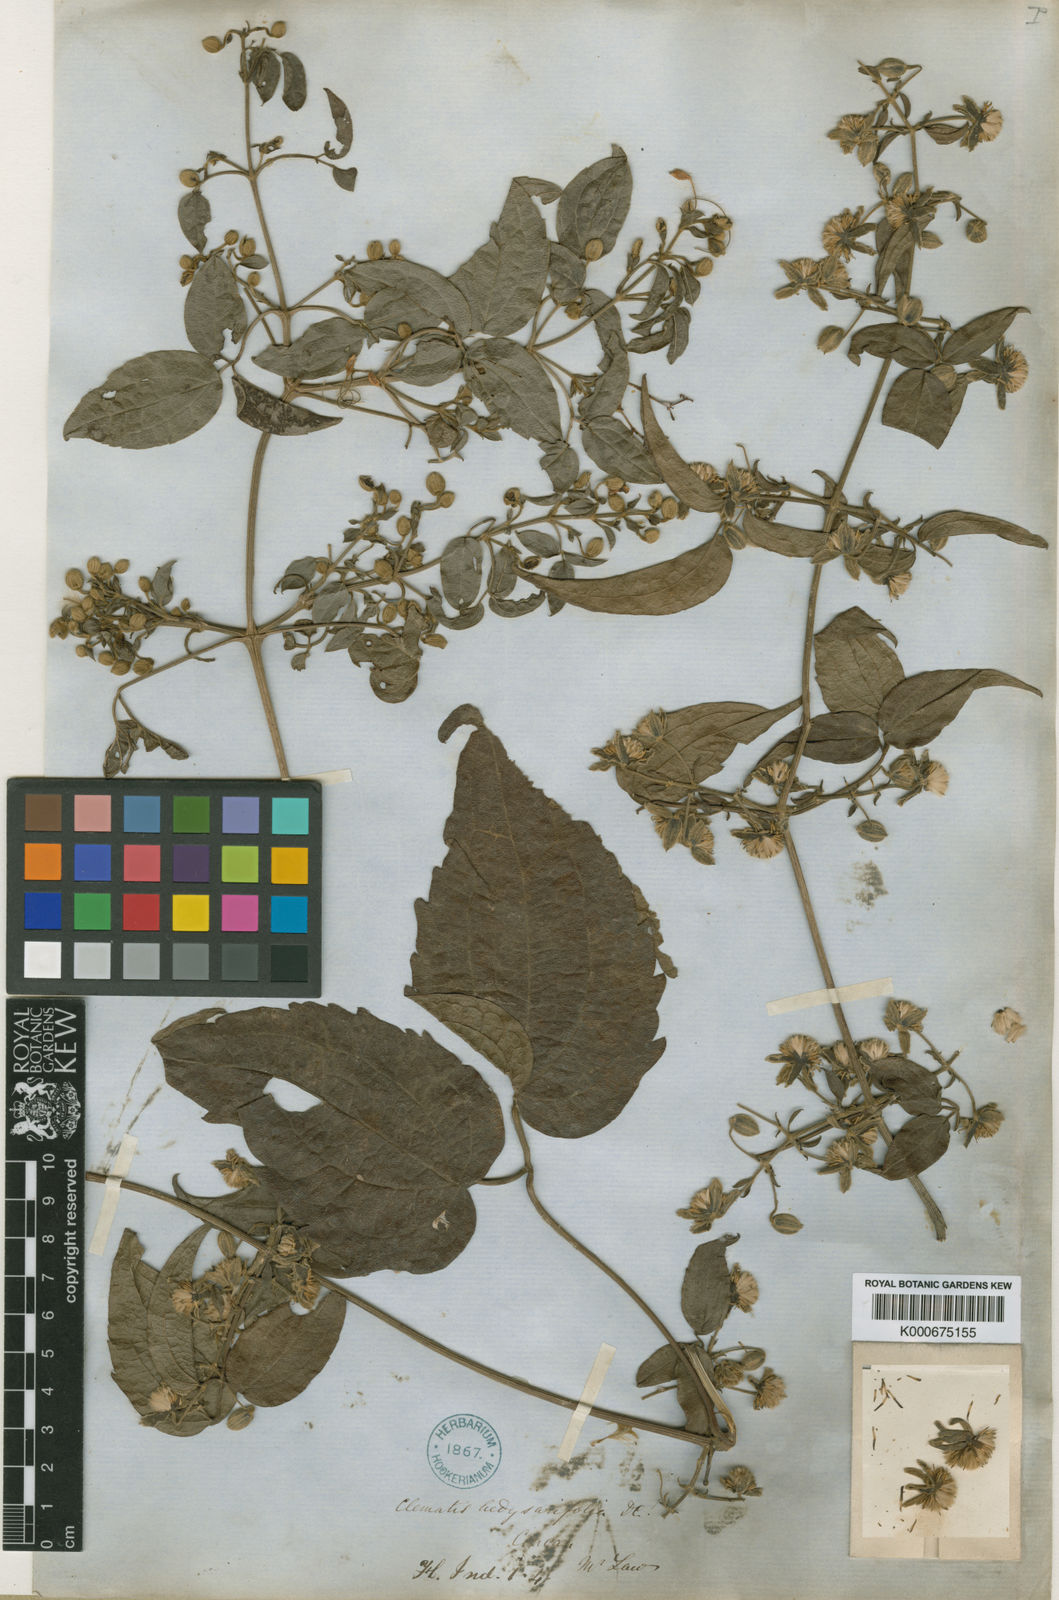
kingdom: Plantae
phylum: Tracheophyta
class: Magnoliopsida
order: Ranunculales
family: Ranunculaceae
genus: Clematis
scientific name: Clematis hedysarifolia
